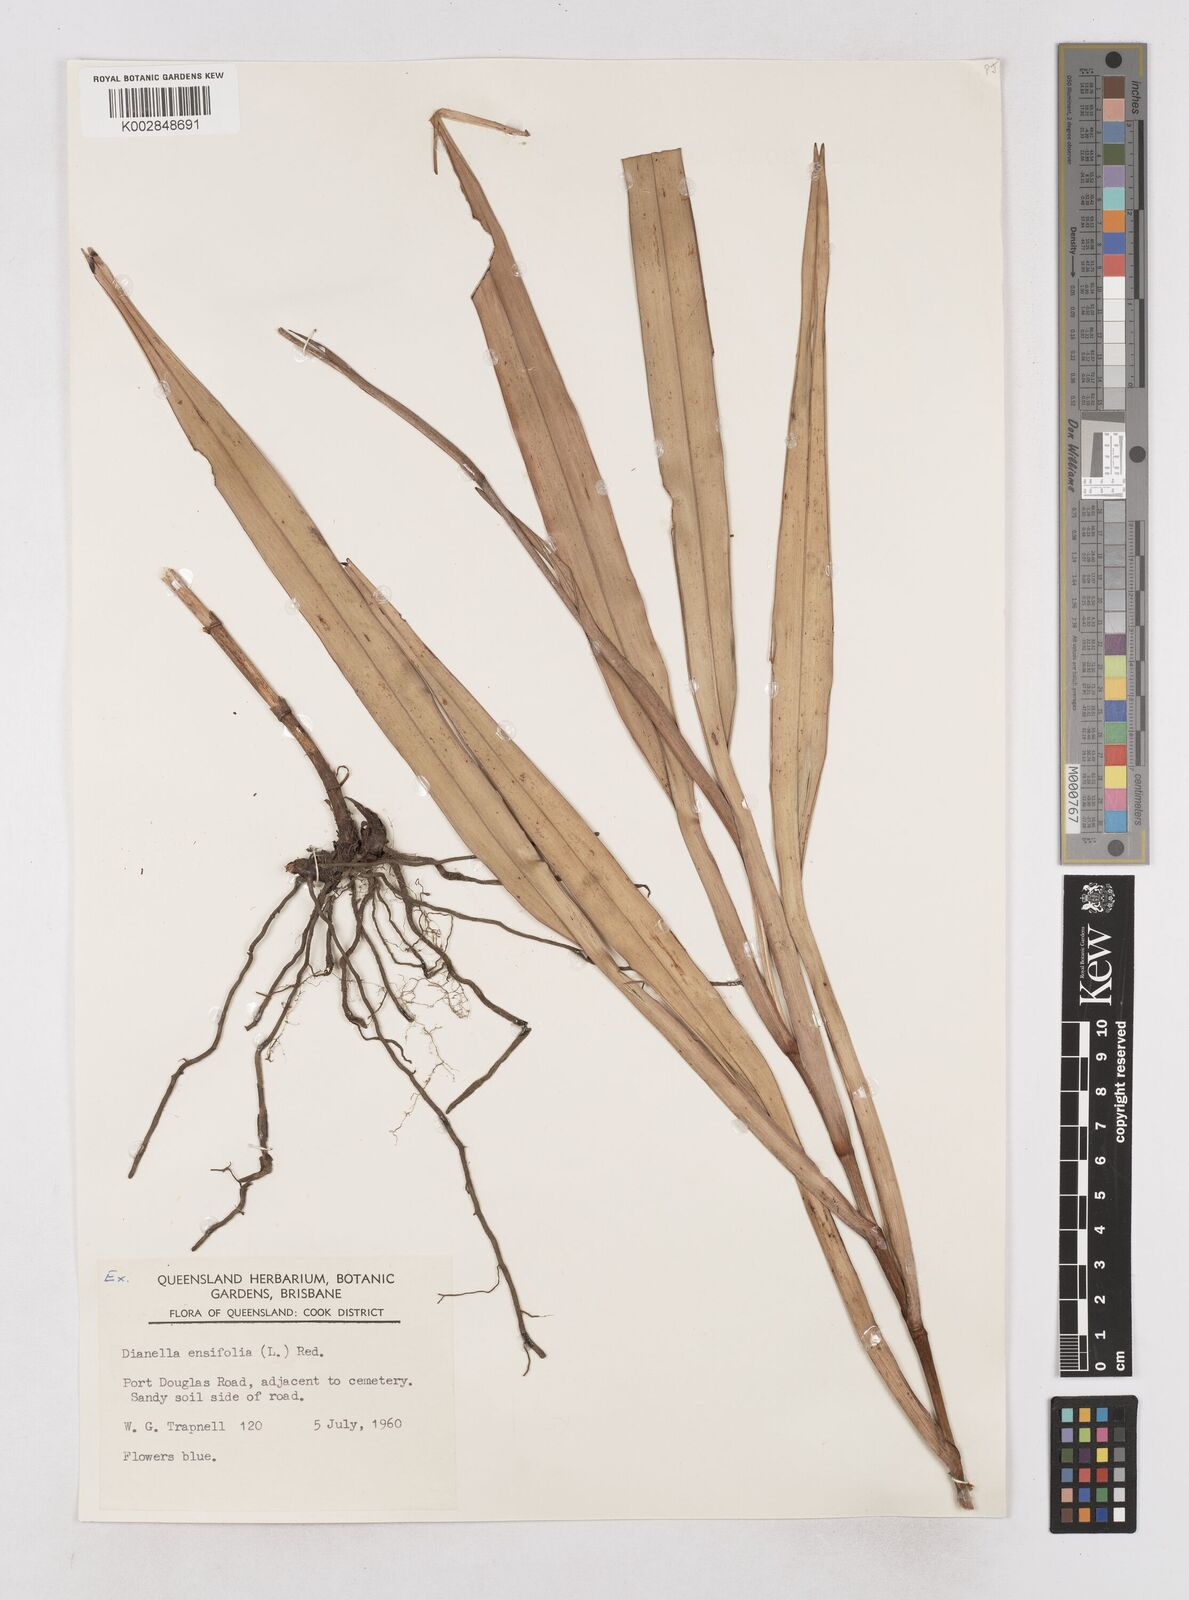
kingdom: Plantae
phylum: Tracheophyta
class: Liliopsida
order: Asparagales
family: Asphodelaceae
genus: Dianella
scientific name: Dianella ensifolia
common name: New zealand lilyplant
